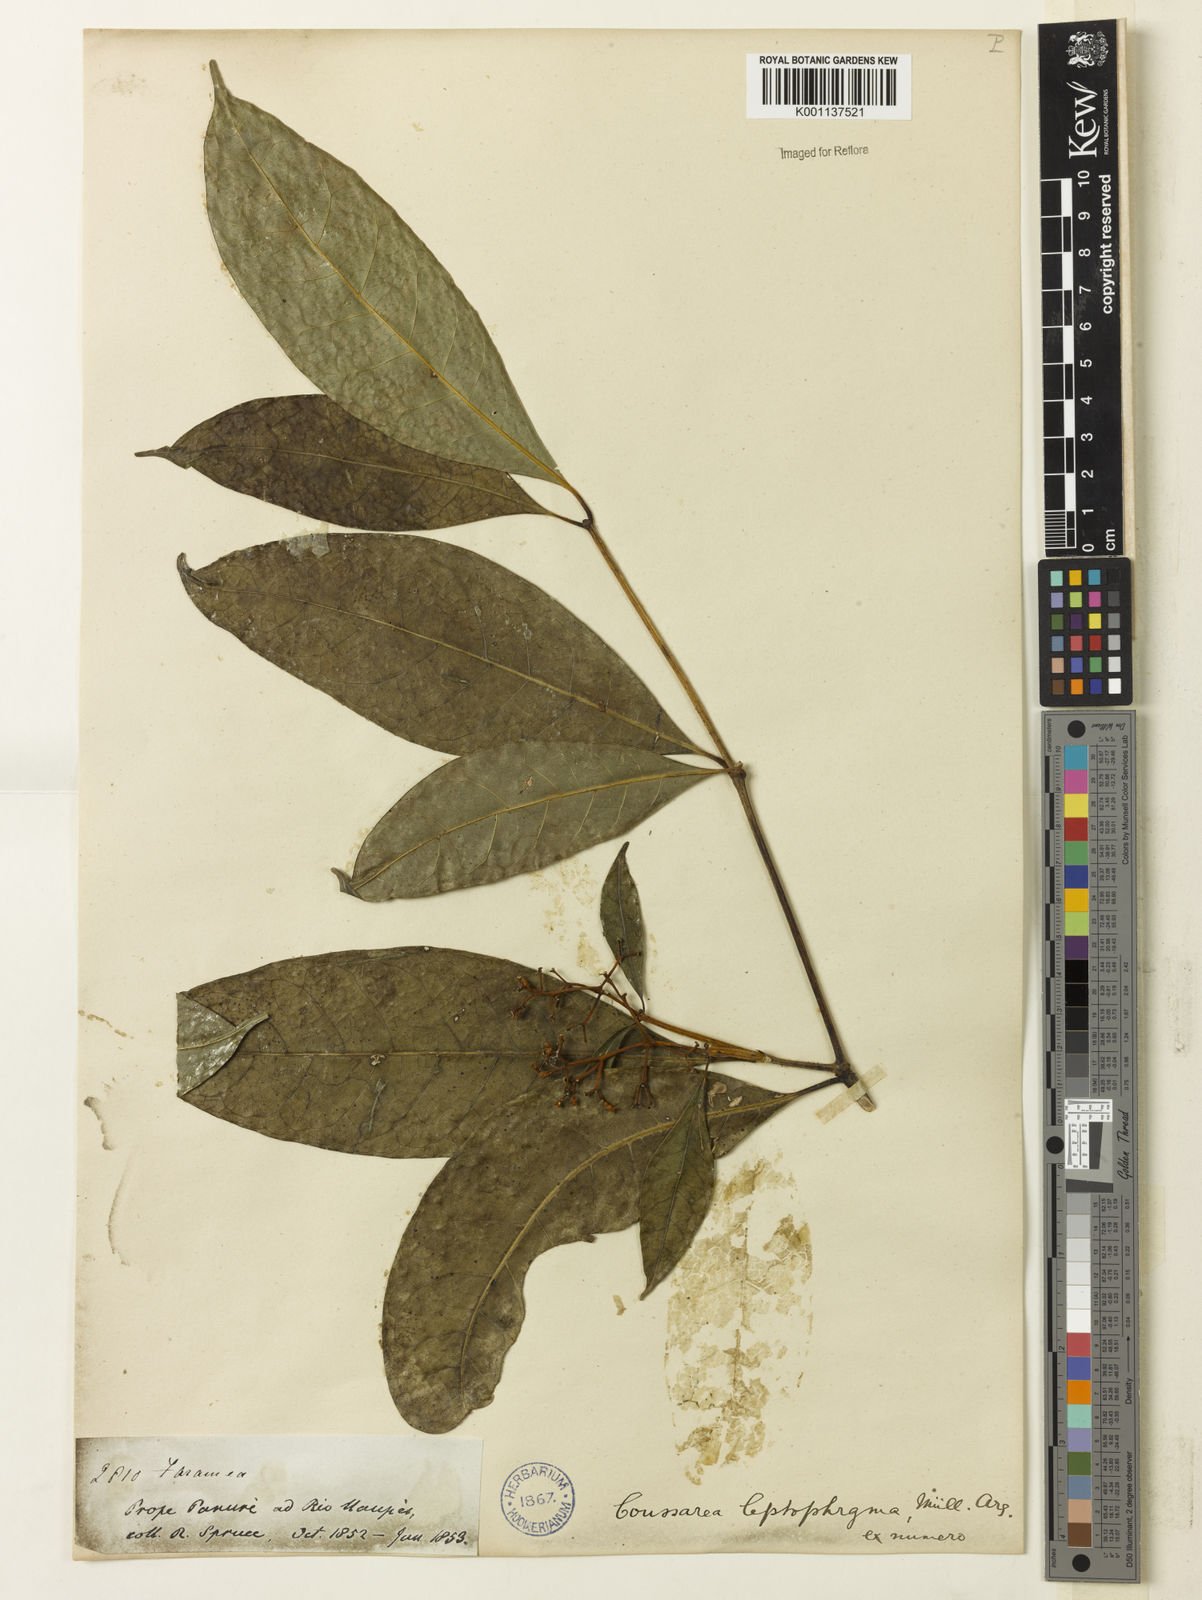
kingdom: Plantae
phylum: Tracheophyta
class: Magnoliopsida
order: Gentianales
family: Rubiaceae
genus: Coussarea
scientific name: Coussarea
